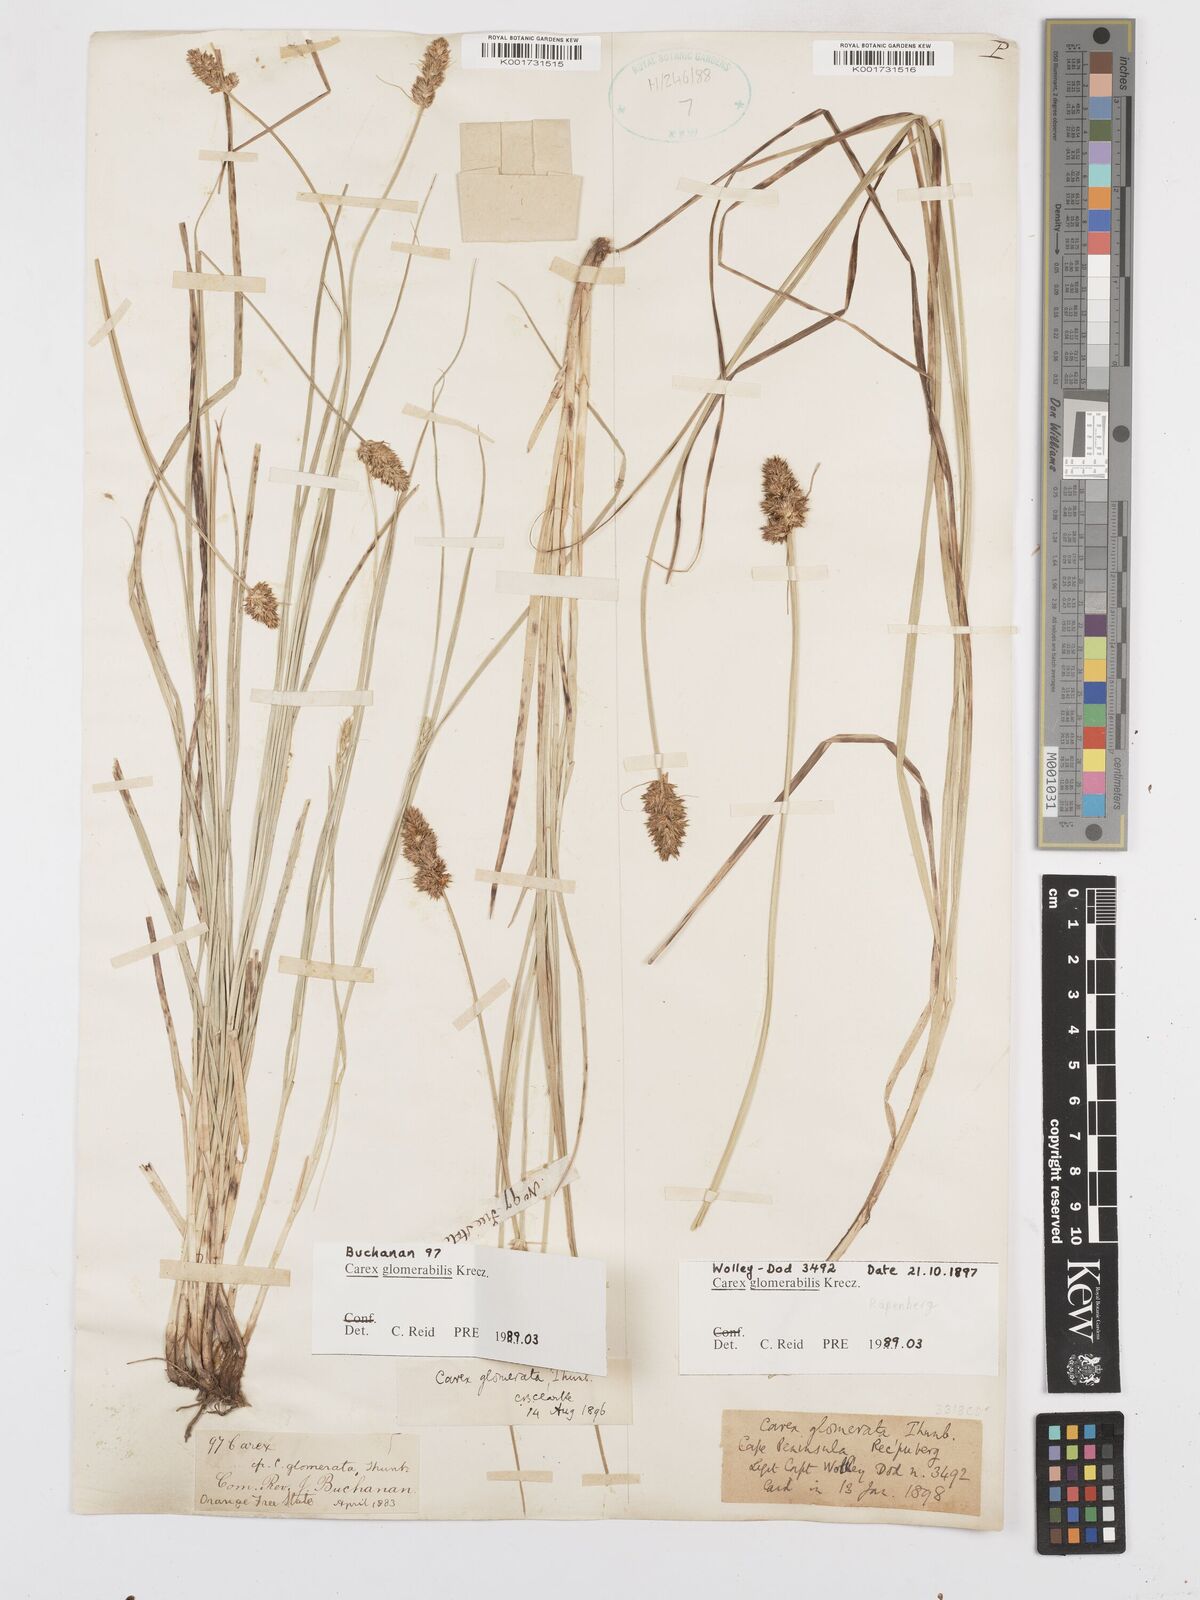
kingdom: Plantae
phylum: Tracheophyta
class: Liliopsida
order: Poales
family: Cyperaceae
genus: Carex
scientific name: Carex glomerata
